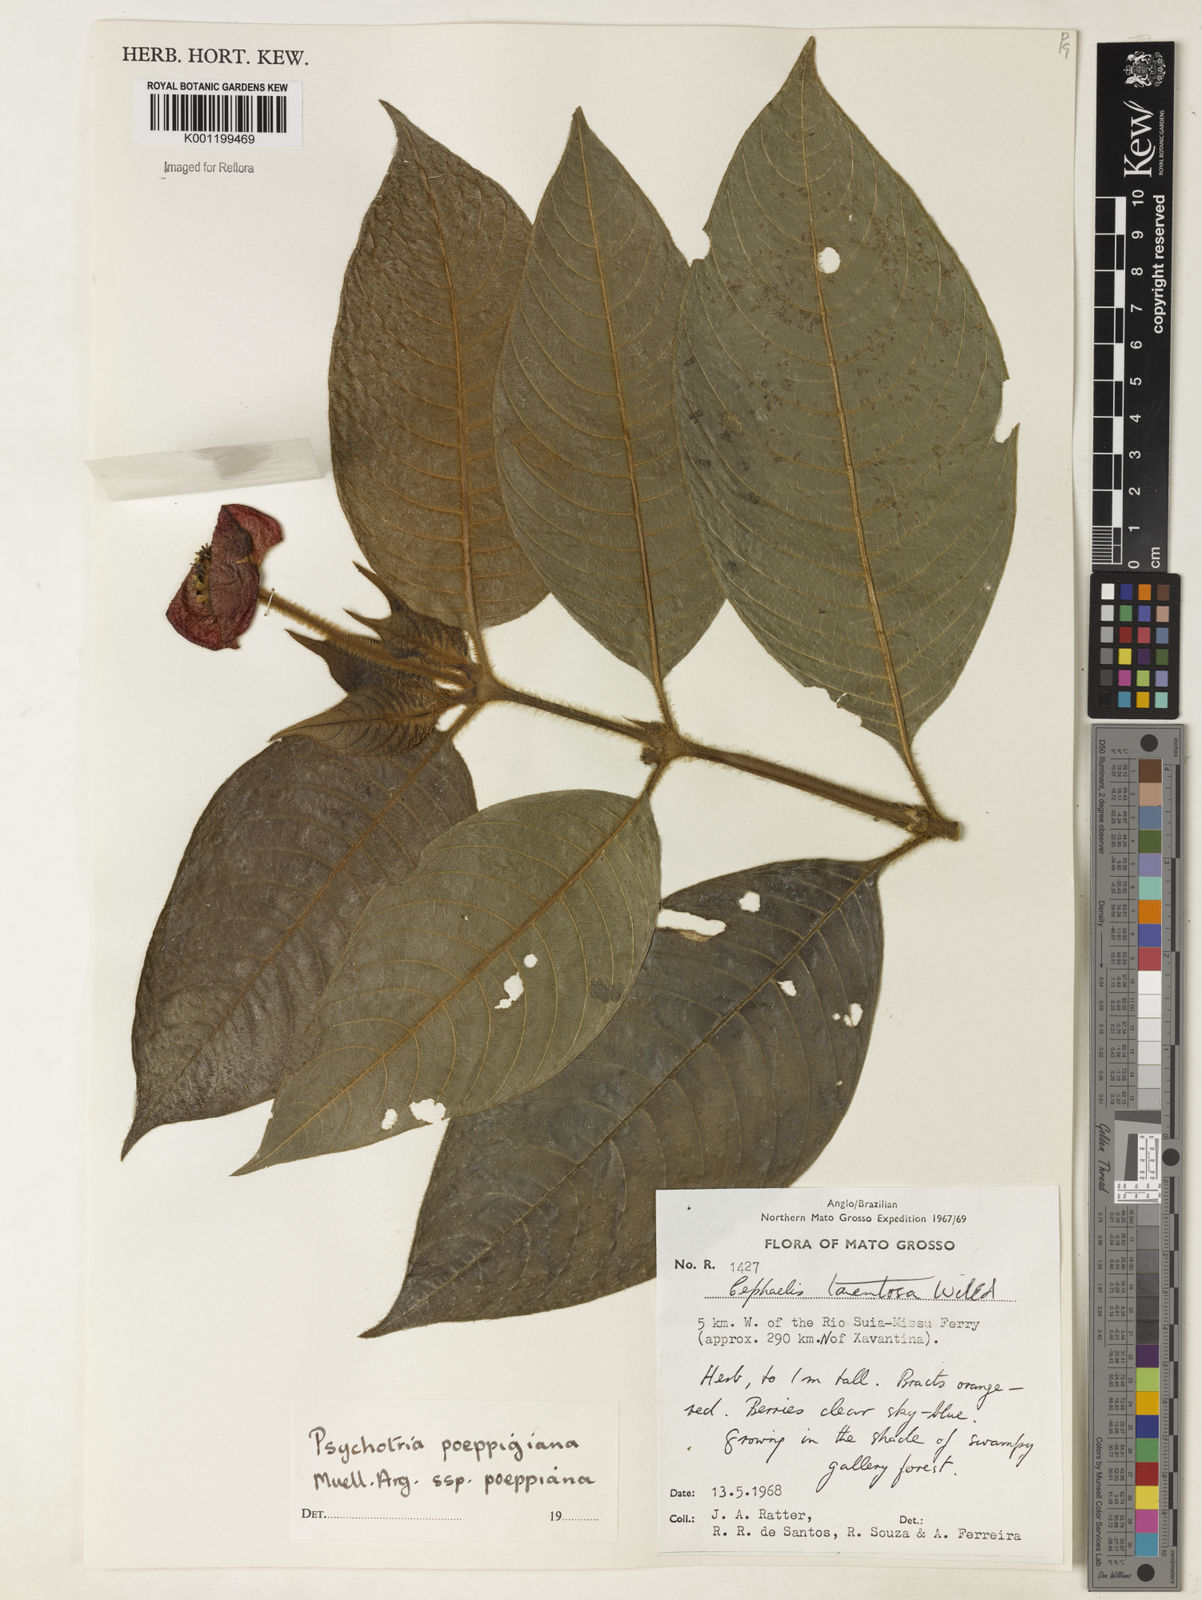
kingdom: Plantae
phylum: Tracheophyta
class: Magnoliopsida
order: Gentianales
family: Rubiaceae
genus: Psychotria
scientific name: Psychotria
